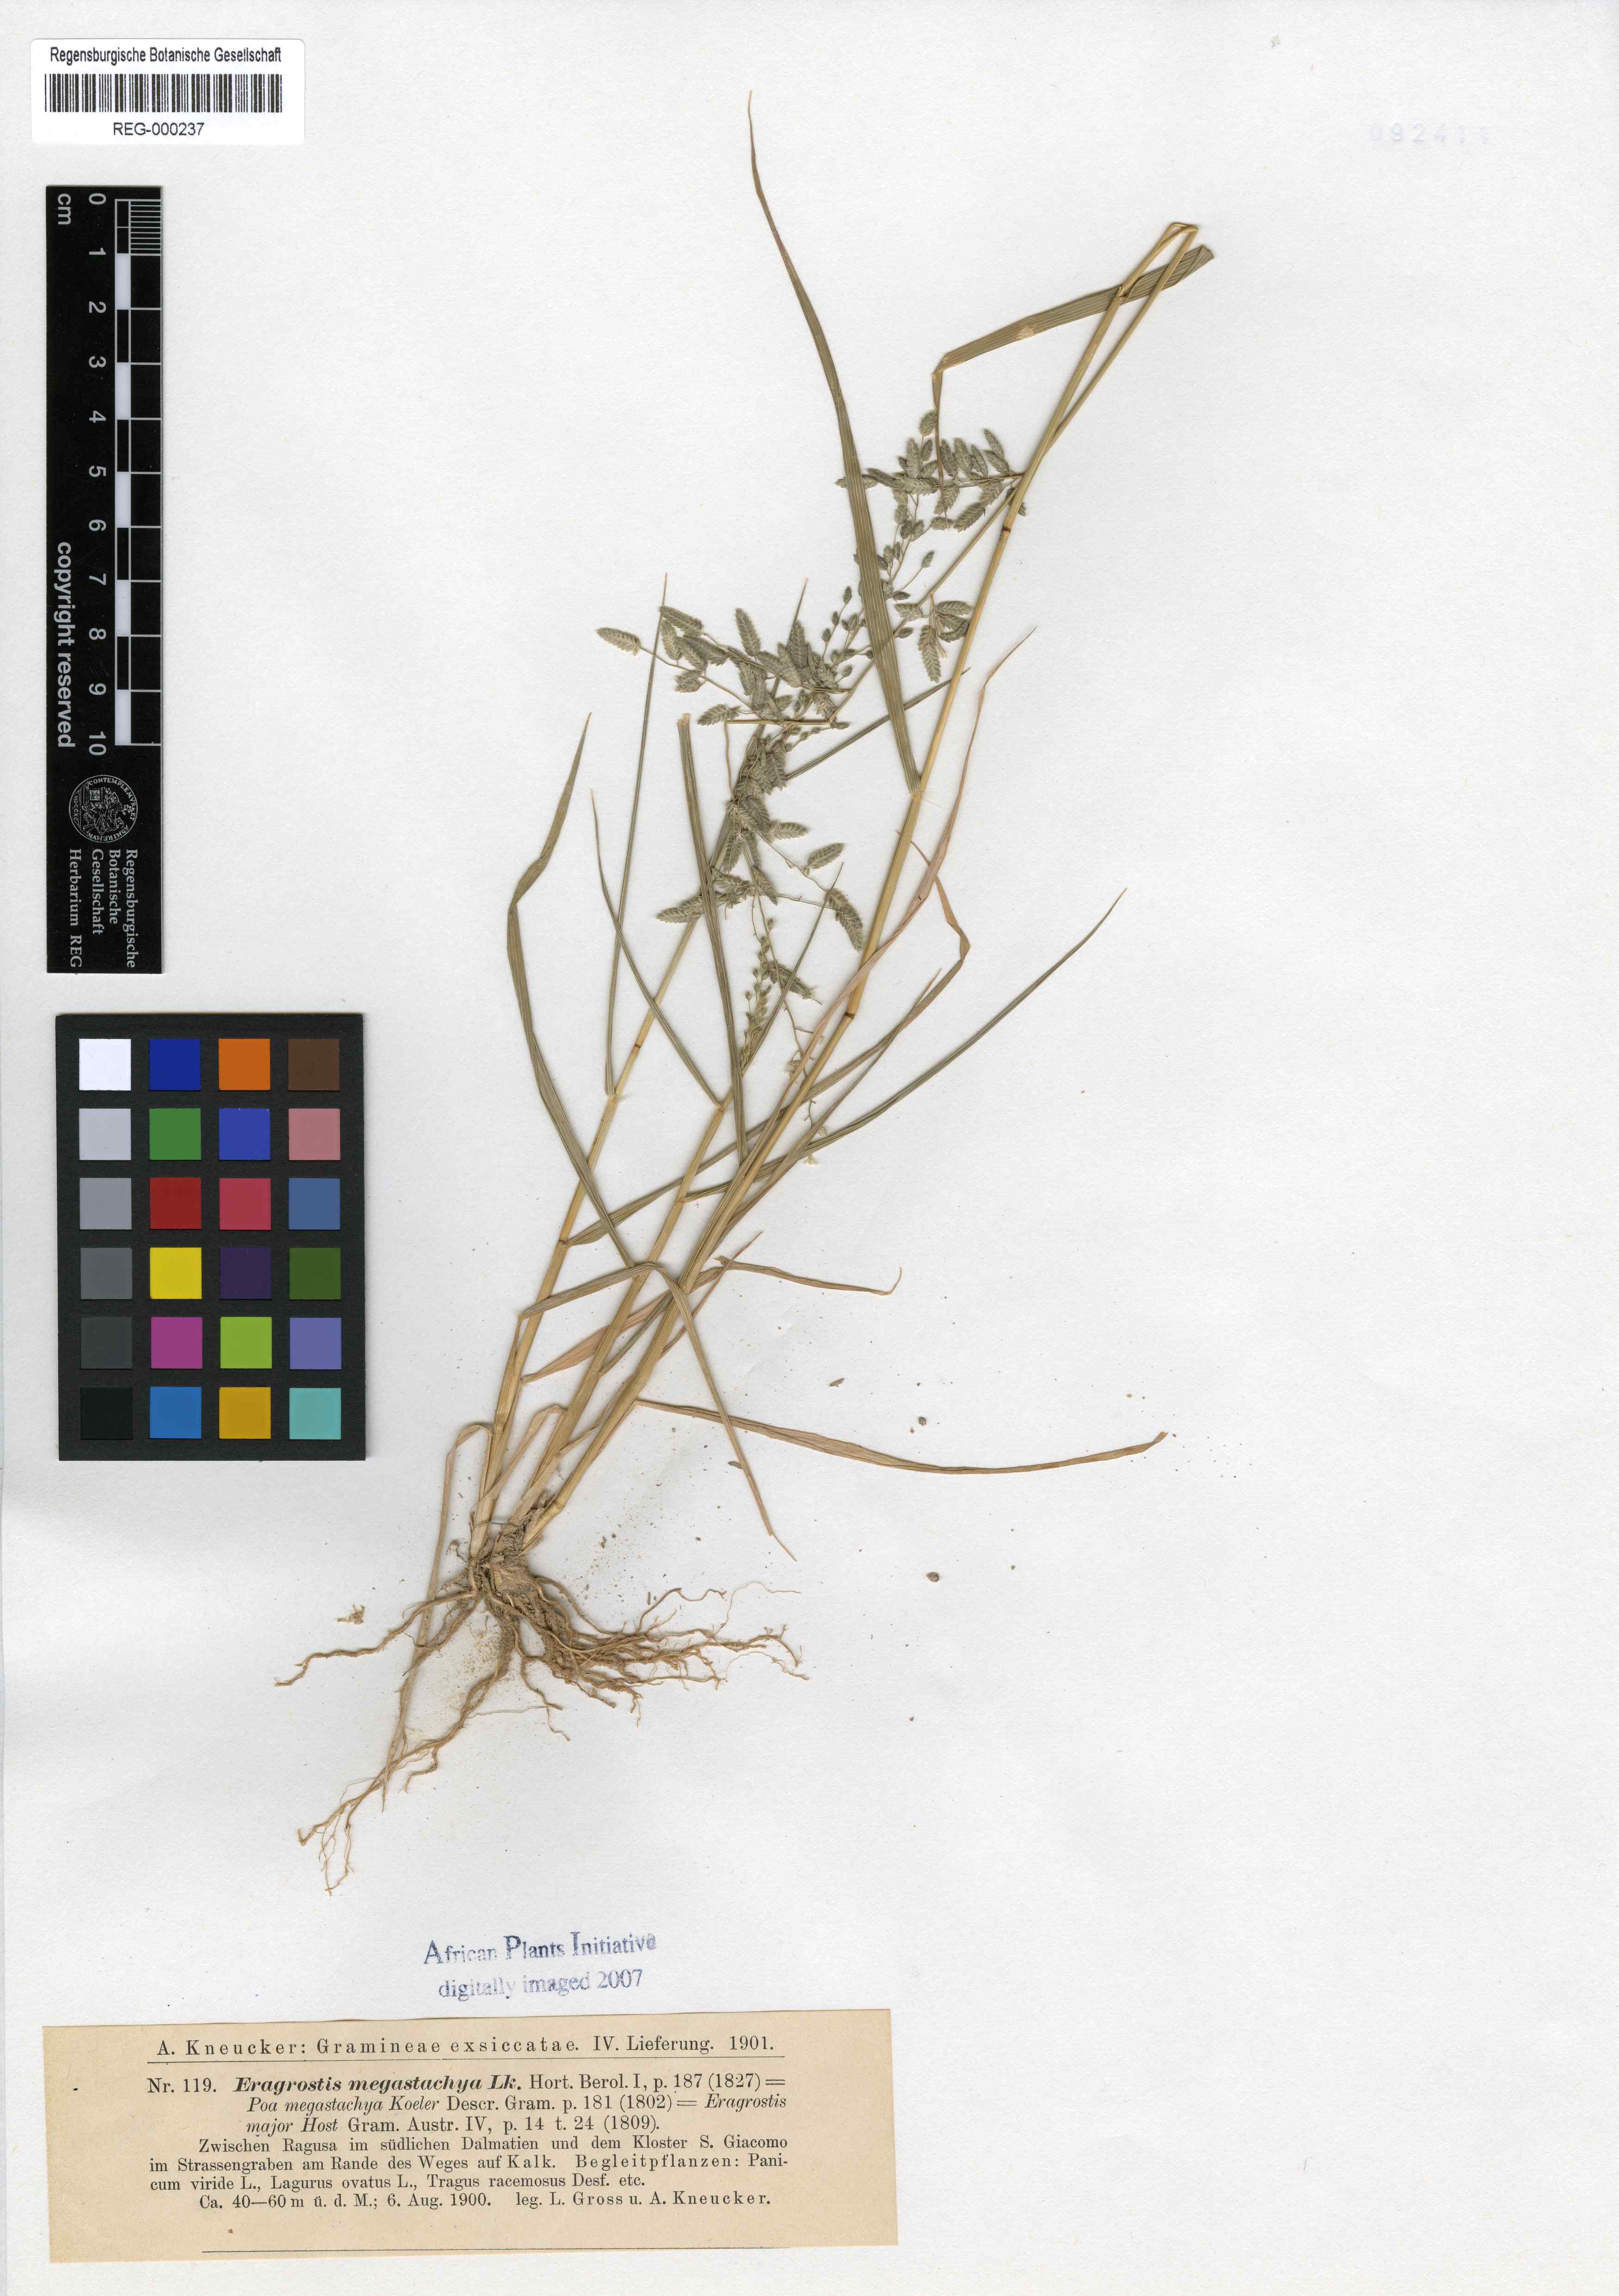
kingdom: Plantae
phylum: Tracheophyta
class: Liliopsida
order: Poales
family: Poaceae
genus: Eragrostis
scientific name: Eragrostis cilianensis
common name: Stinkgrass
